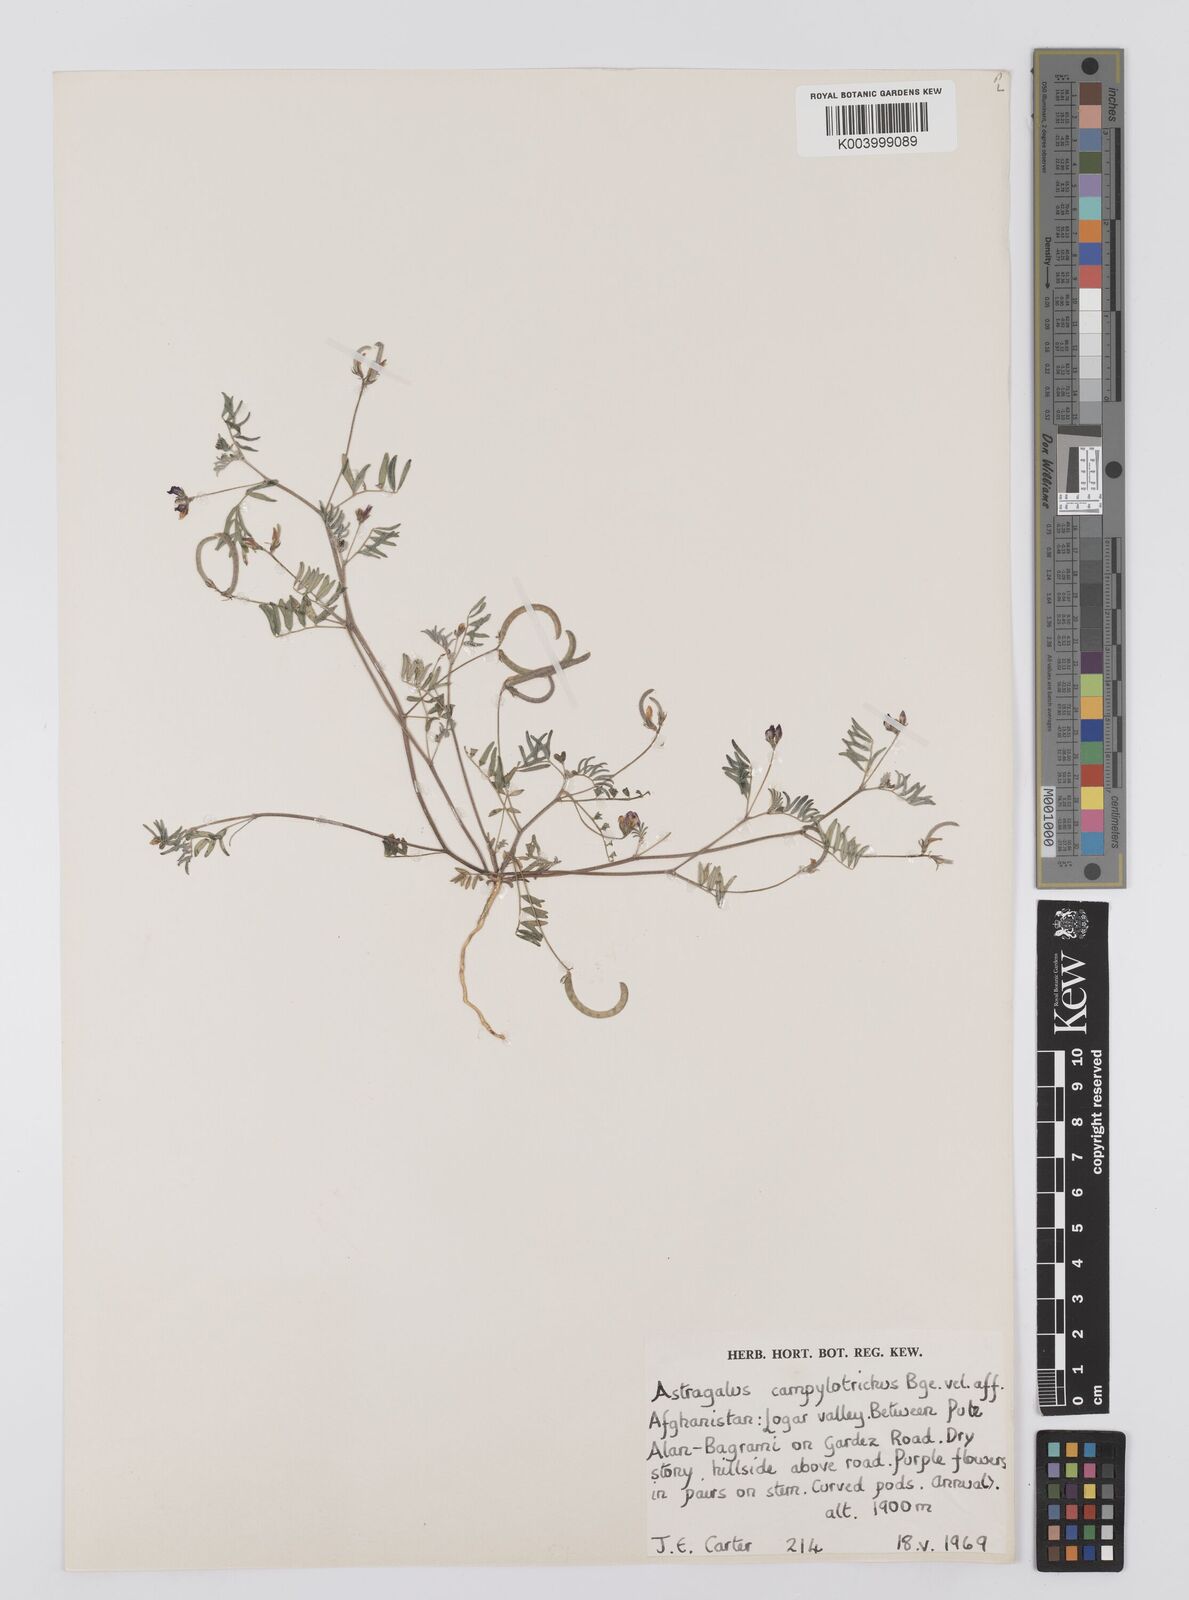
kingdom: Plantae
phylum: Tracheophyta
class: Magnoliopsida
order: Fabales
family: Fabaceae
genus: Astragalus
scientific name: Astragalus campylotrichus
